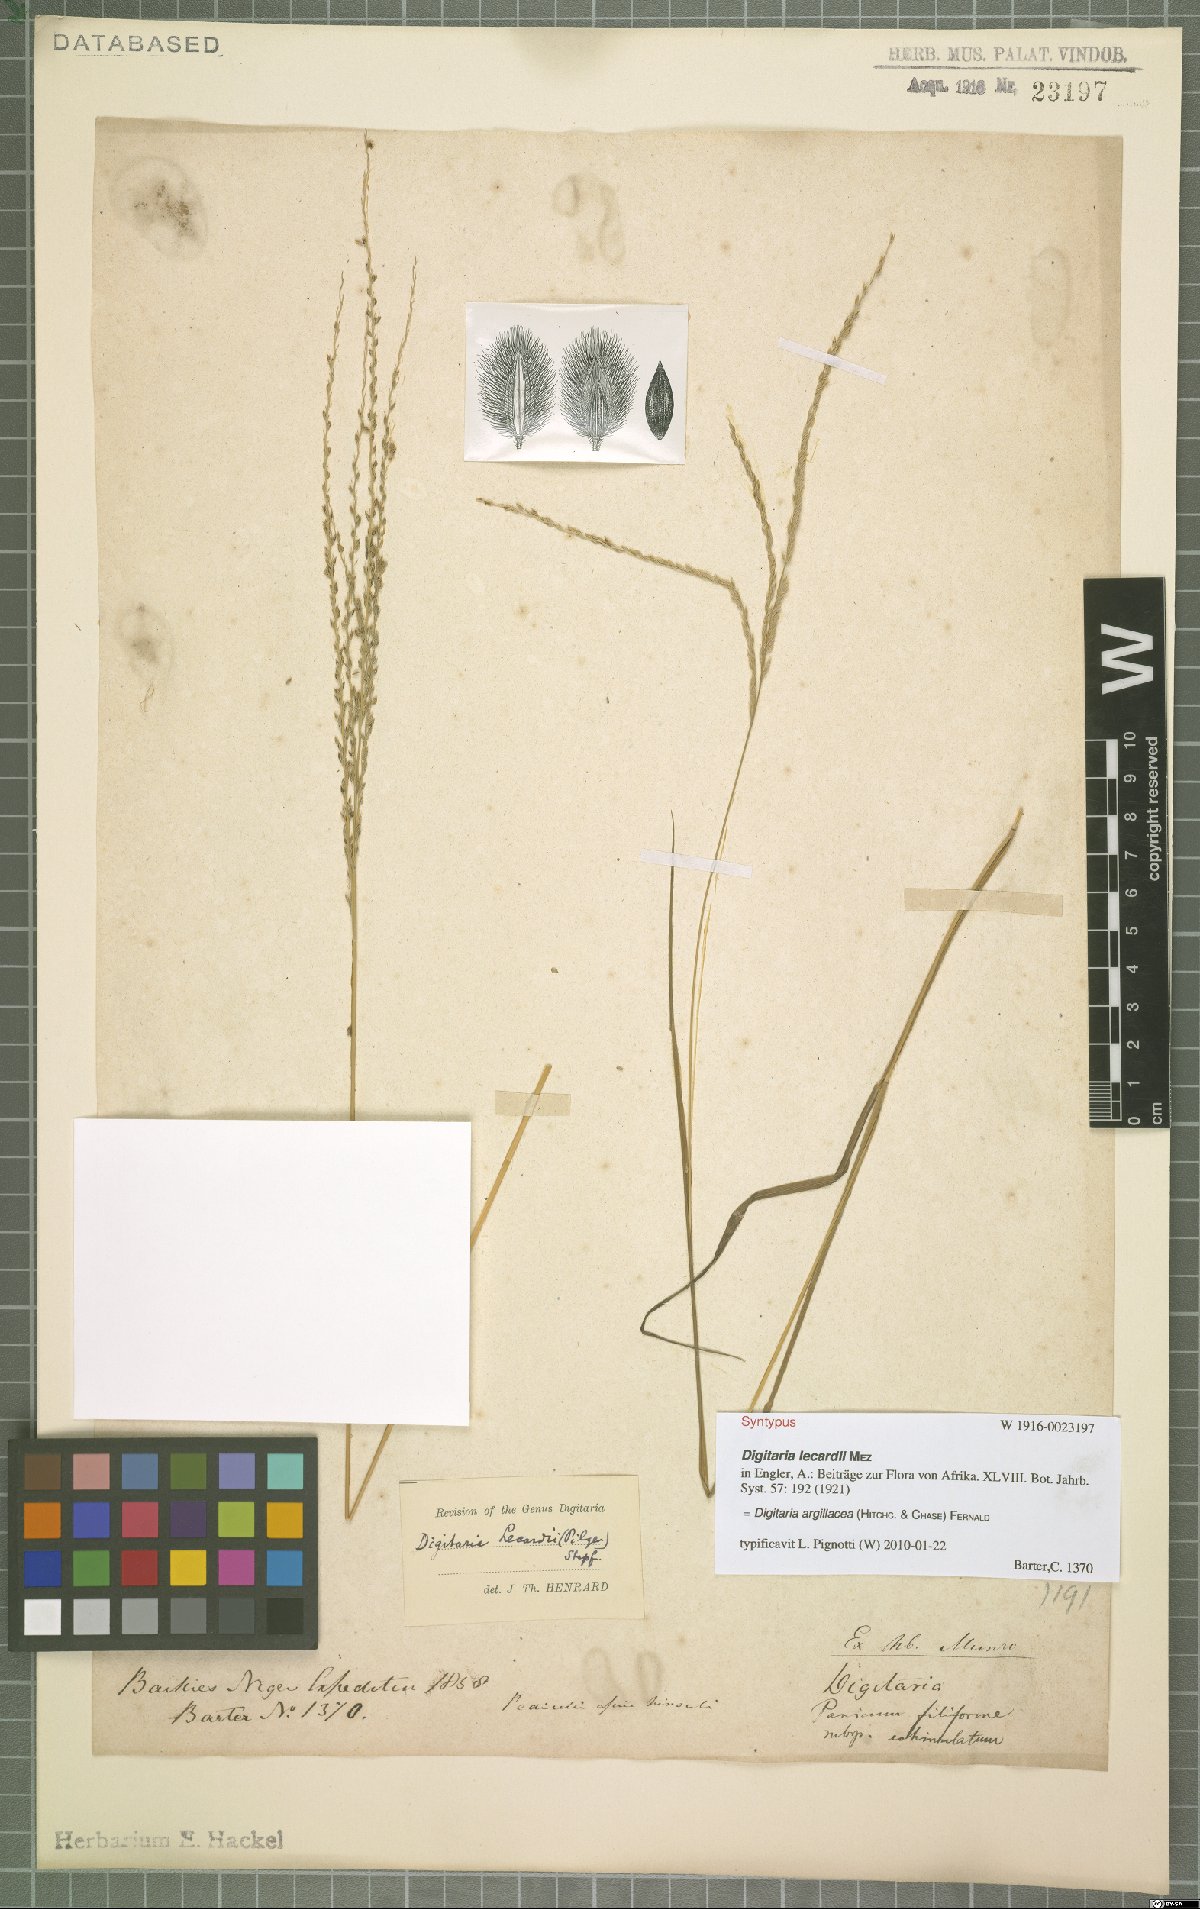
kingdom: Plantae
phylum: Tracheophyta
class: Liliopsida
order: Poales
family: Poaceae
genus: Digitaria
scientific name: Digitaria argillacea
